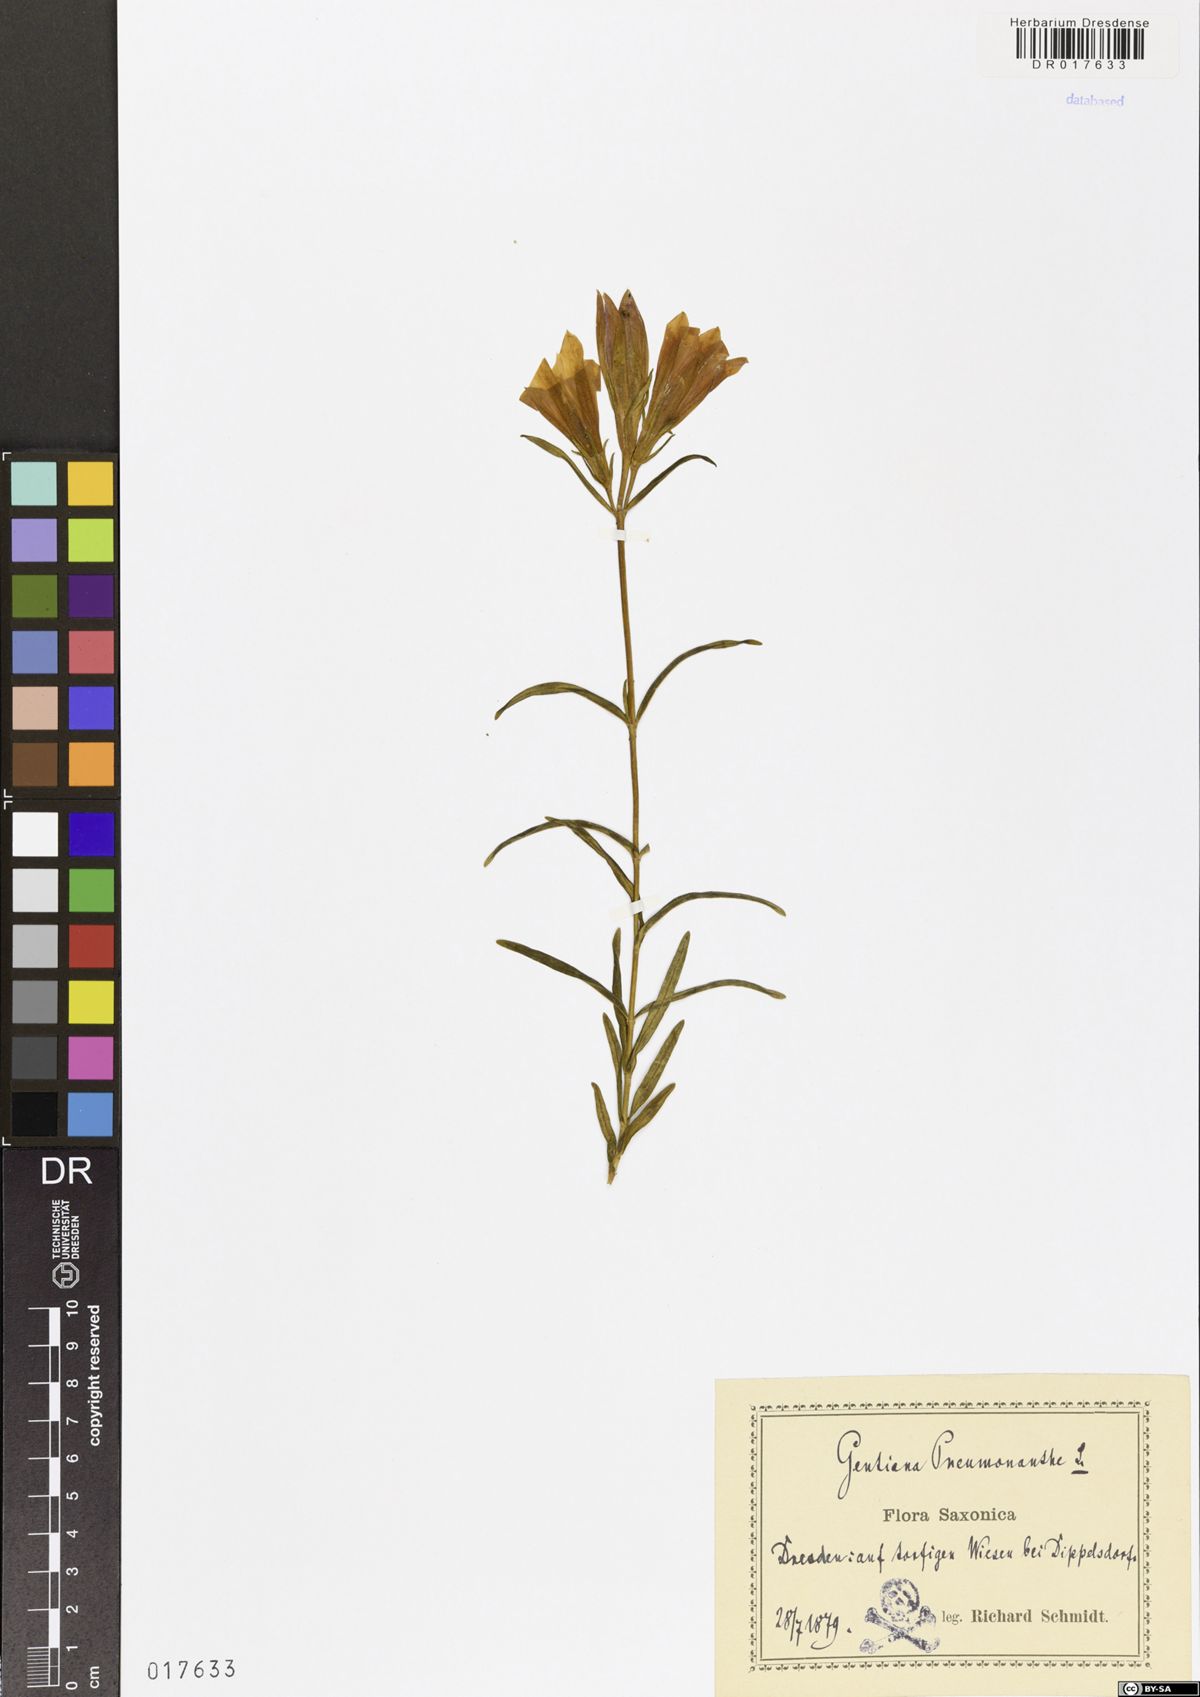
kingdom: Plantae
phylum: Tracheophyta
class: Magnoliopsida
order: Gentianales
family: Gentianaceae
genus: Gentiana
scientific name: Gentiana pneumonanthe
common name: Marsh gentian
